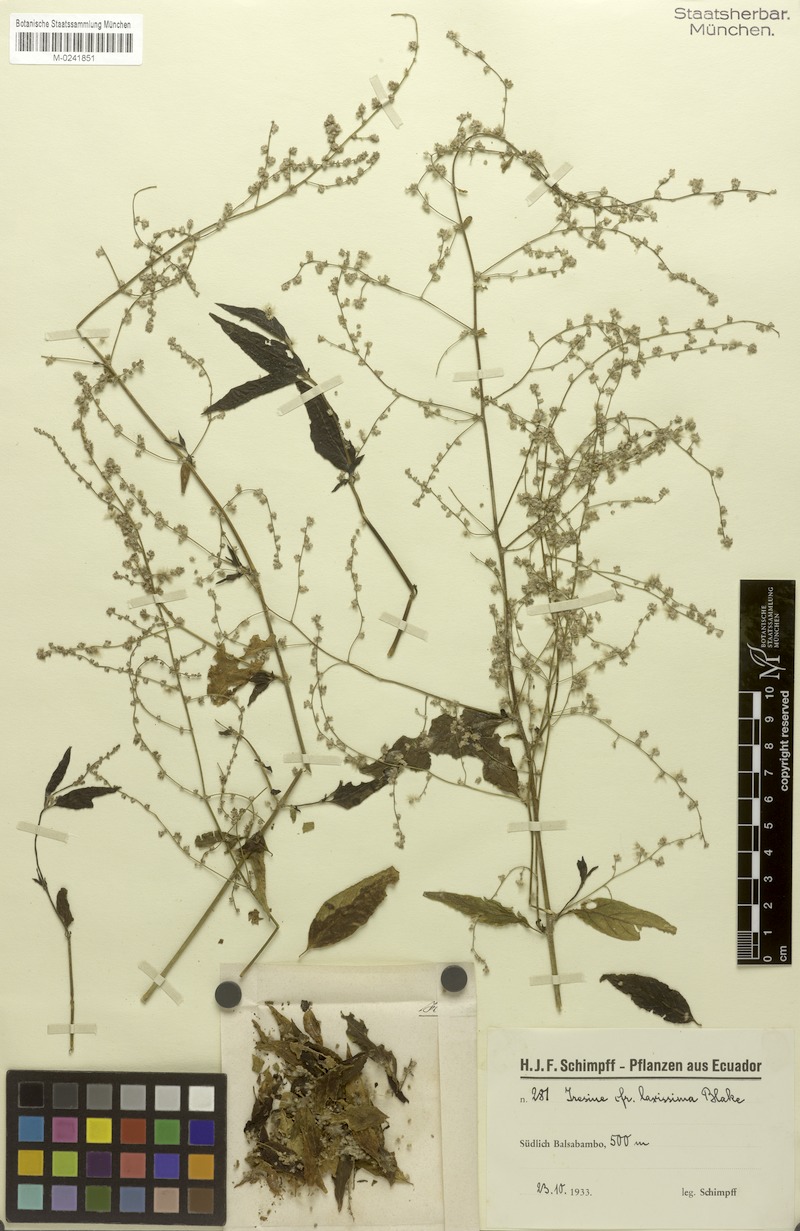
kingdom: Plantae
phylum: Tracheophyta
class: Magnoliopsida
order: Caryophyllales
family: Amaranthaceae
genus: Iresine
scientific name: Iresine angustifolia
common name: White snowplant
